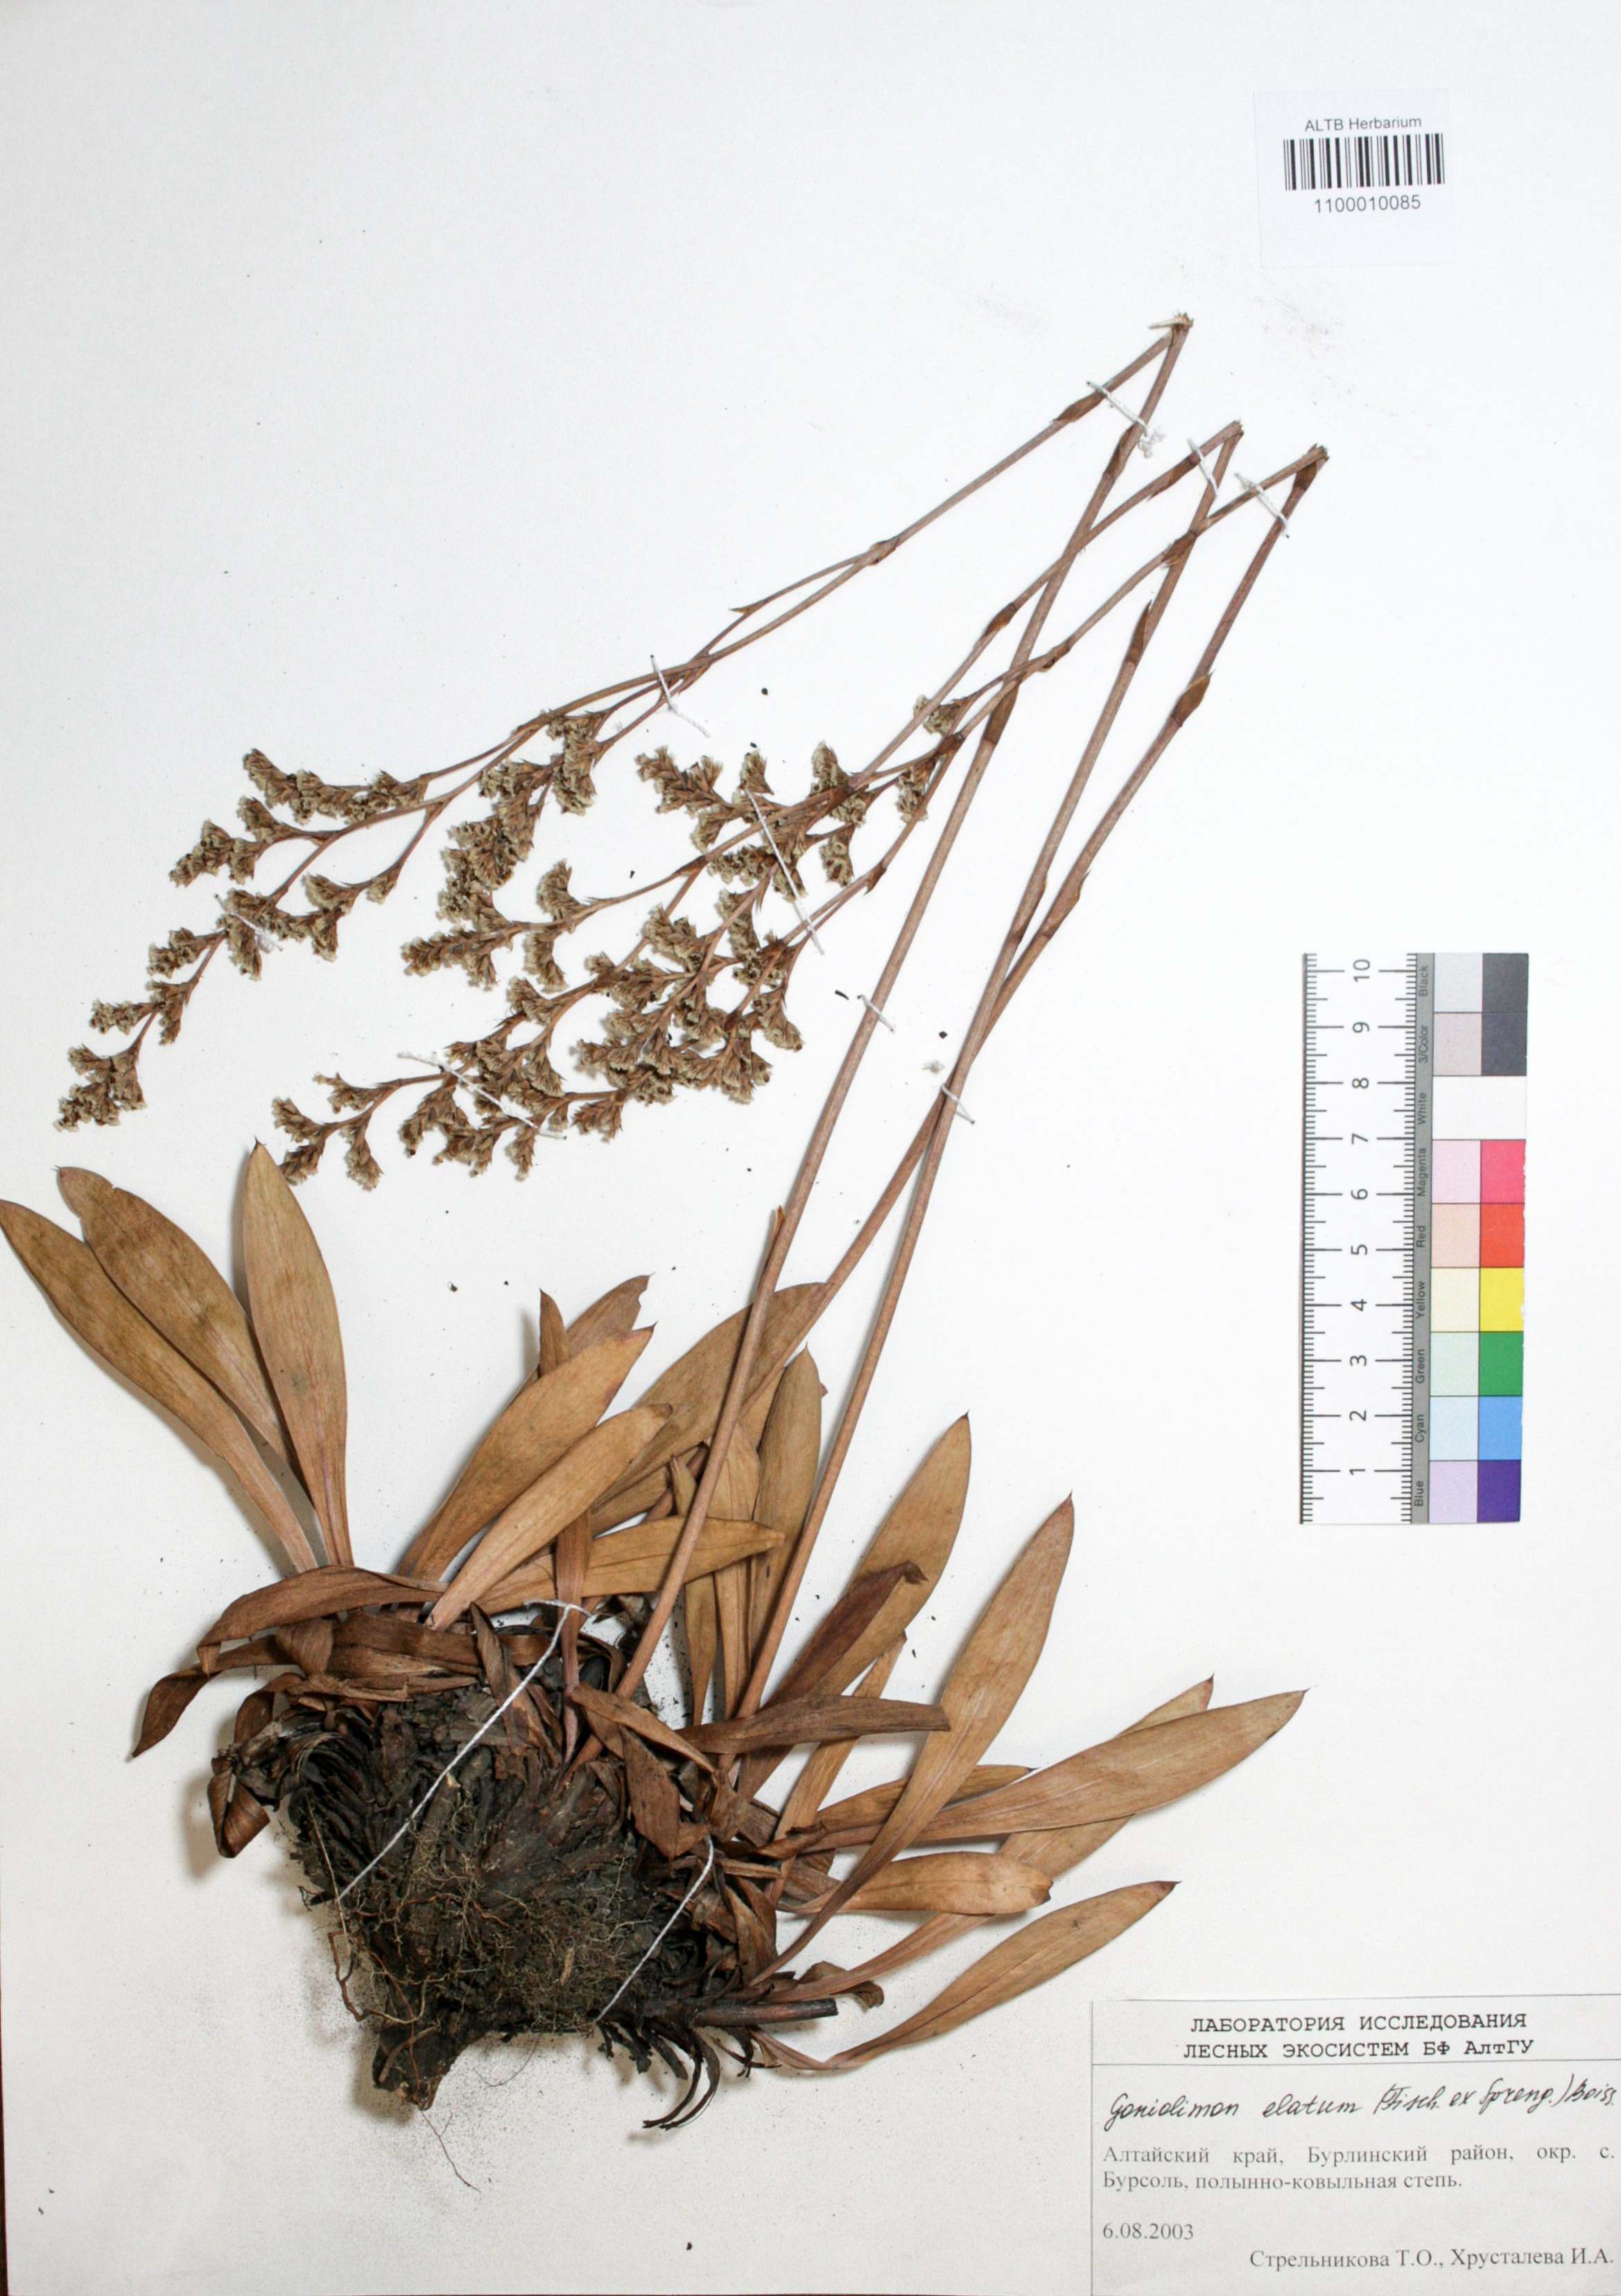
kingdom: Plantae
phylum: Tracheophyta
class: Magnoliopsida
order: Caryophyllales
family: Plumbaginaceae
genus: Goniolimon
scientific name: Goniolimon elatum
